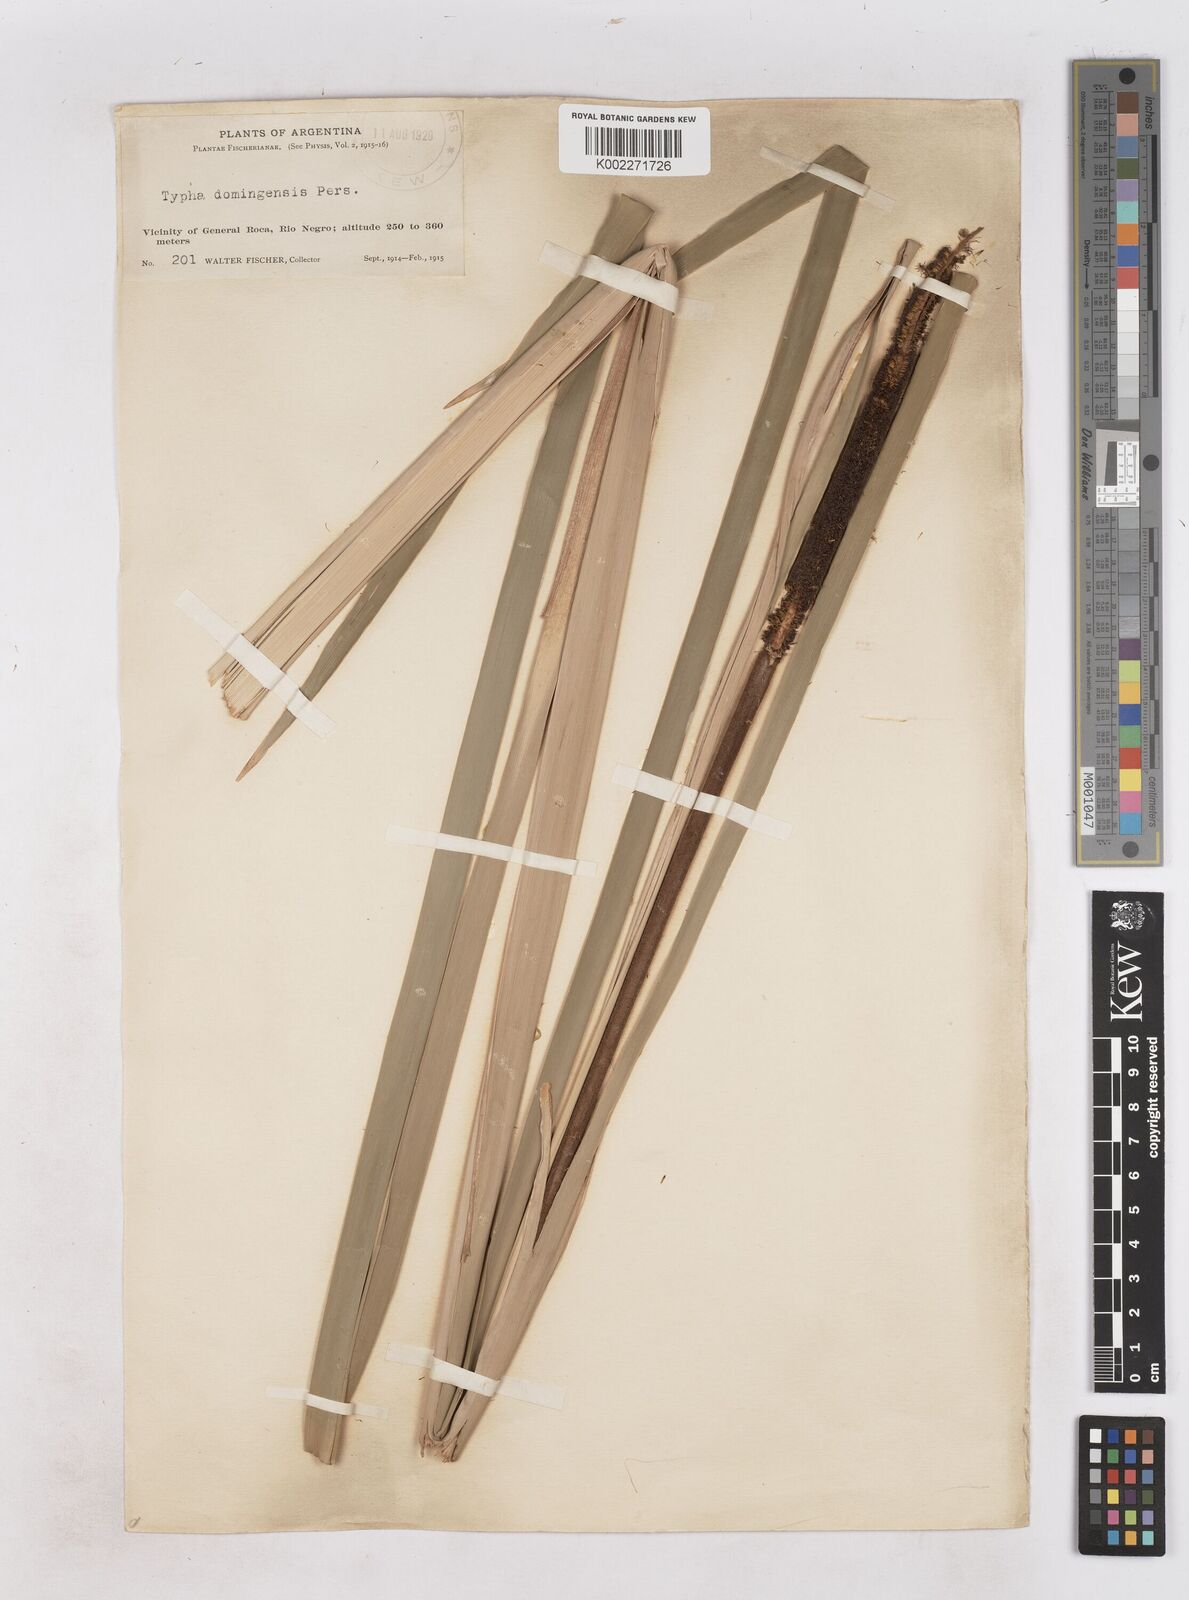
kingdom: Plantae
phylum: Tracheophyta
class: Liliopsida
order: Poales
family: Typhaceae
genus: Typha
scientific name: Typha domingensis
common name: Southern cattail
